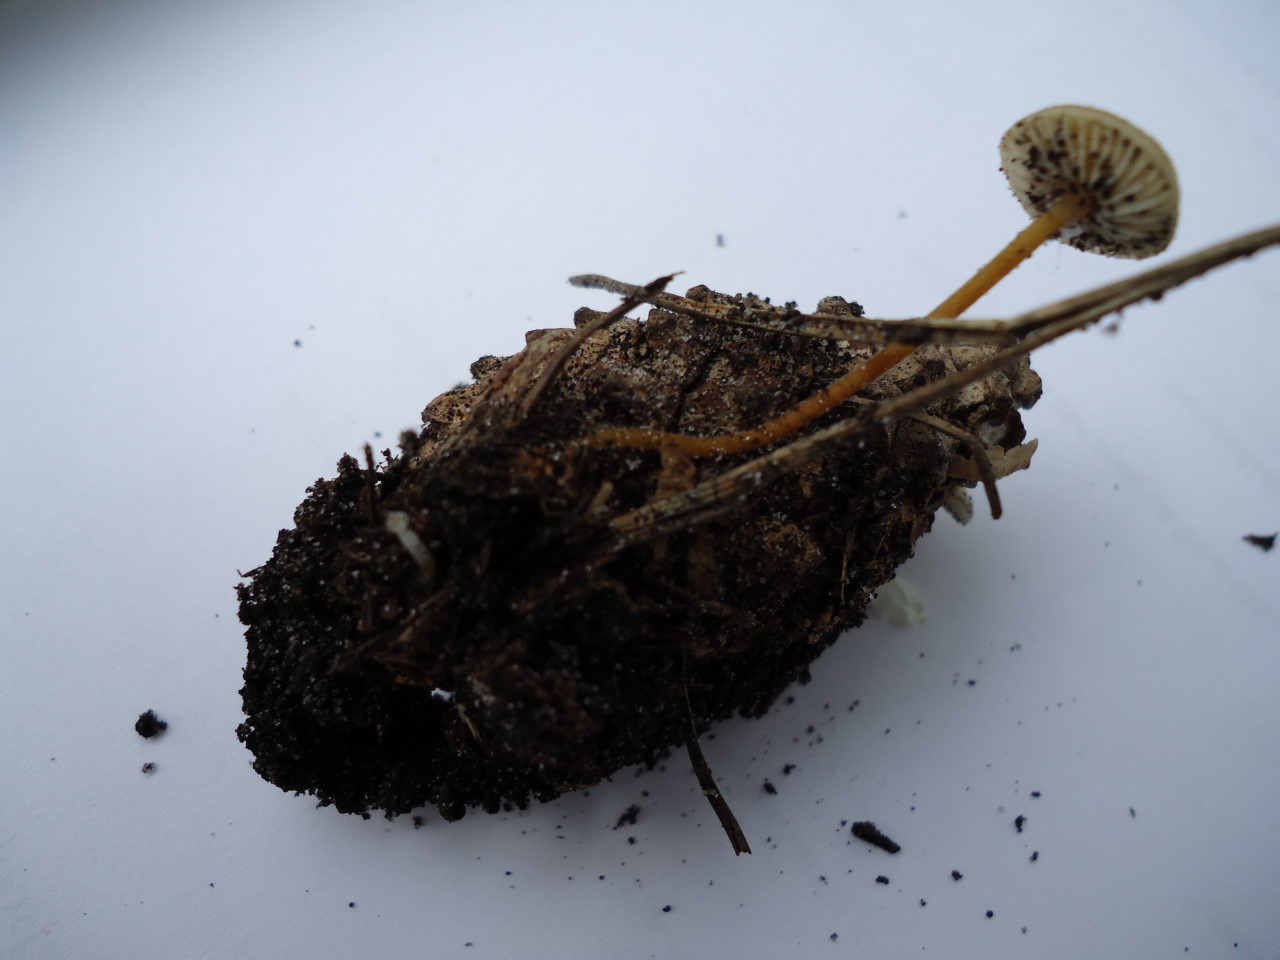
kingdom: Fungi
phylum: Basidiomycota
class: Agaricomycetes
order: Agaricales
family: Physalacriaceae
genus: Strobilurus
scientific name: Strobilurus tenacellus
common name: sommer-koglehat
